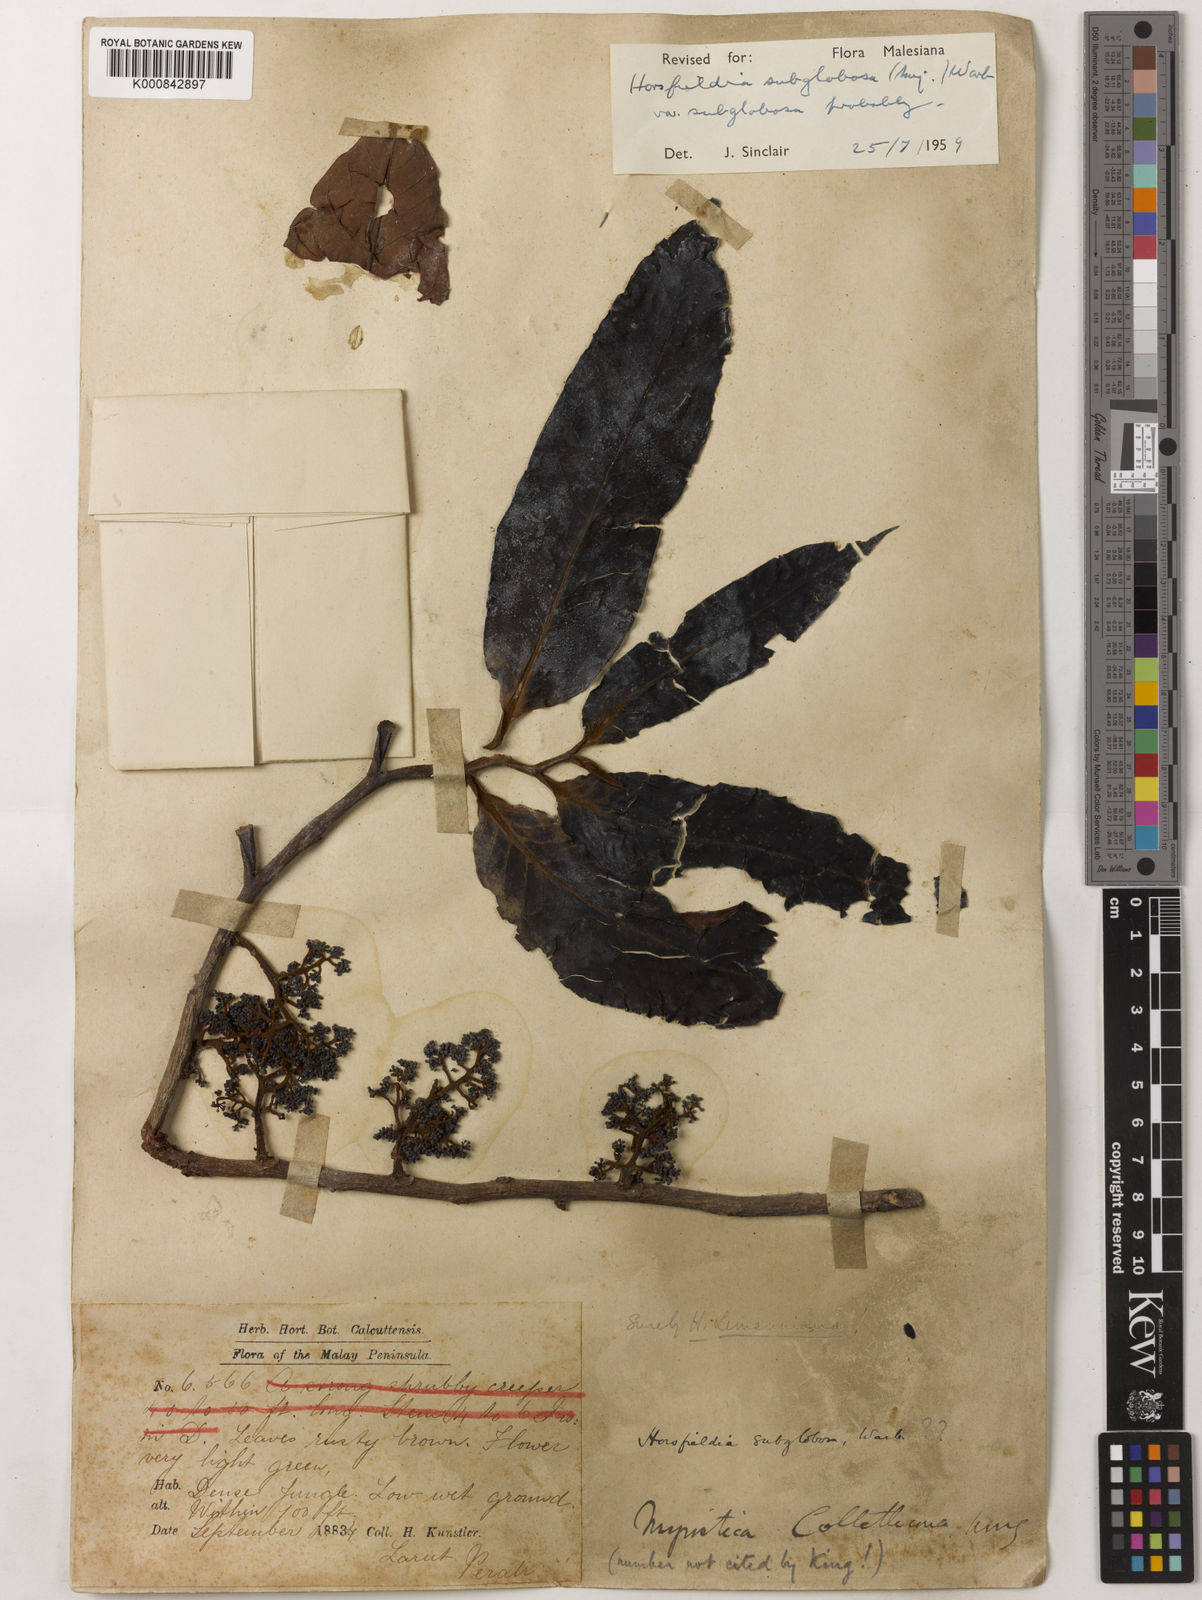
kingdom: Plantae
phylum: Tracheophyta
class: Magnoliopsida
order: Magnoliales
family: Myristicaceae
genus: Horsfieldia
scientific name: Horsfieldia
